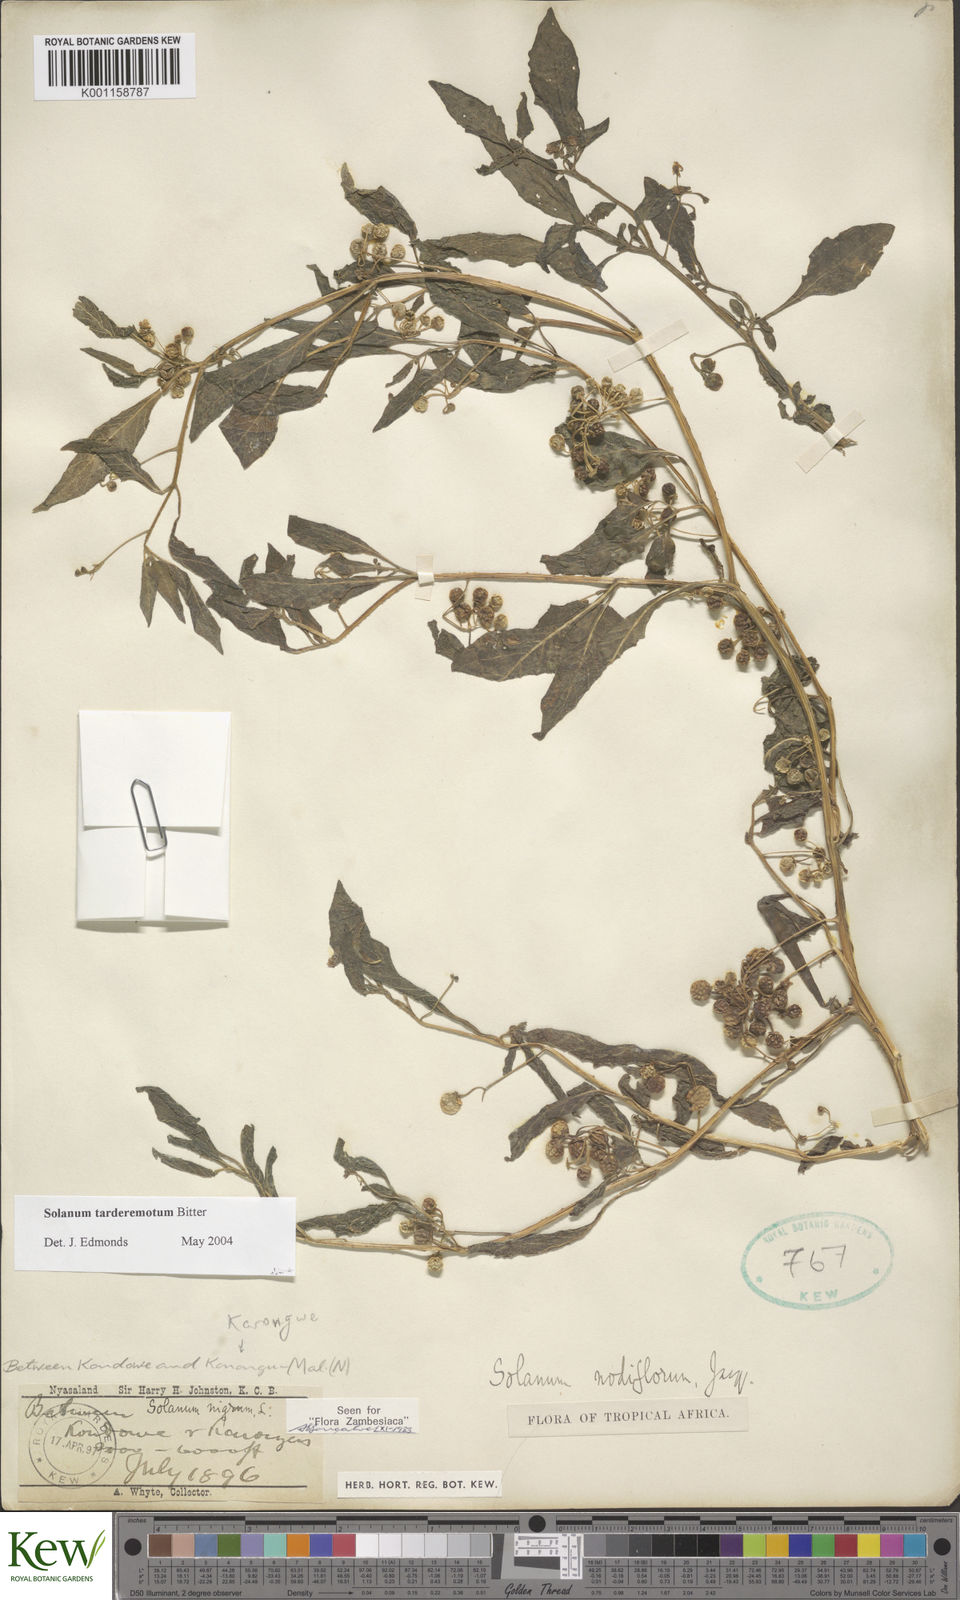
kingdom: Plantae
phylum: Tracheophyta
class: Magnoliopsida
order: Solanales
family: Solanaceae
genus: Solanum
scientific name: Solanum tarderemotum
